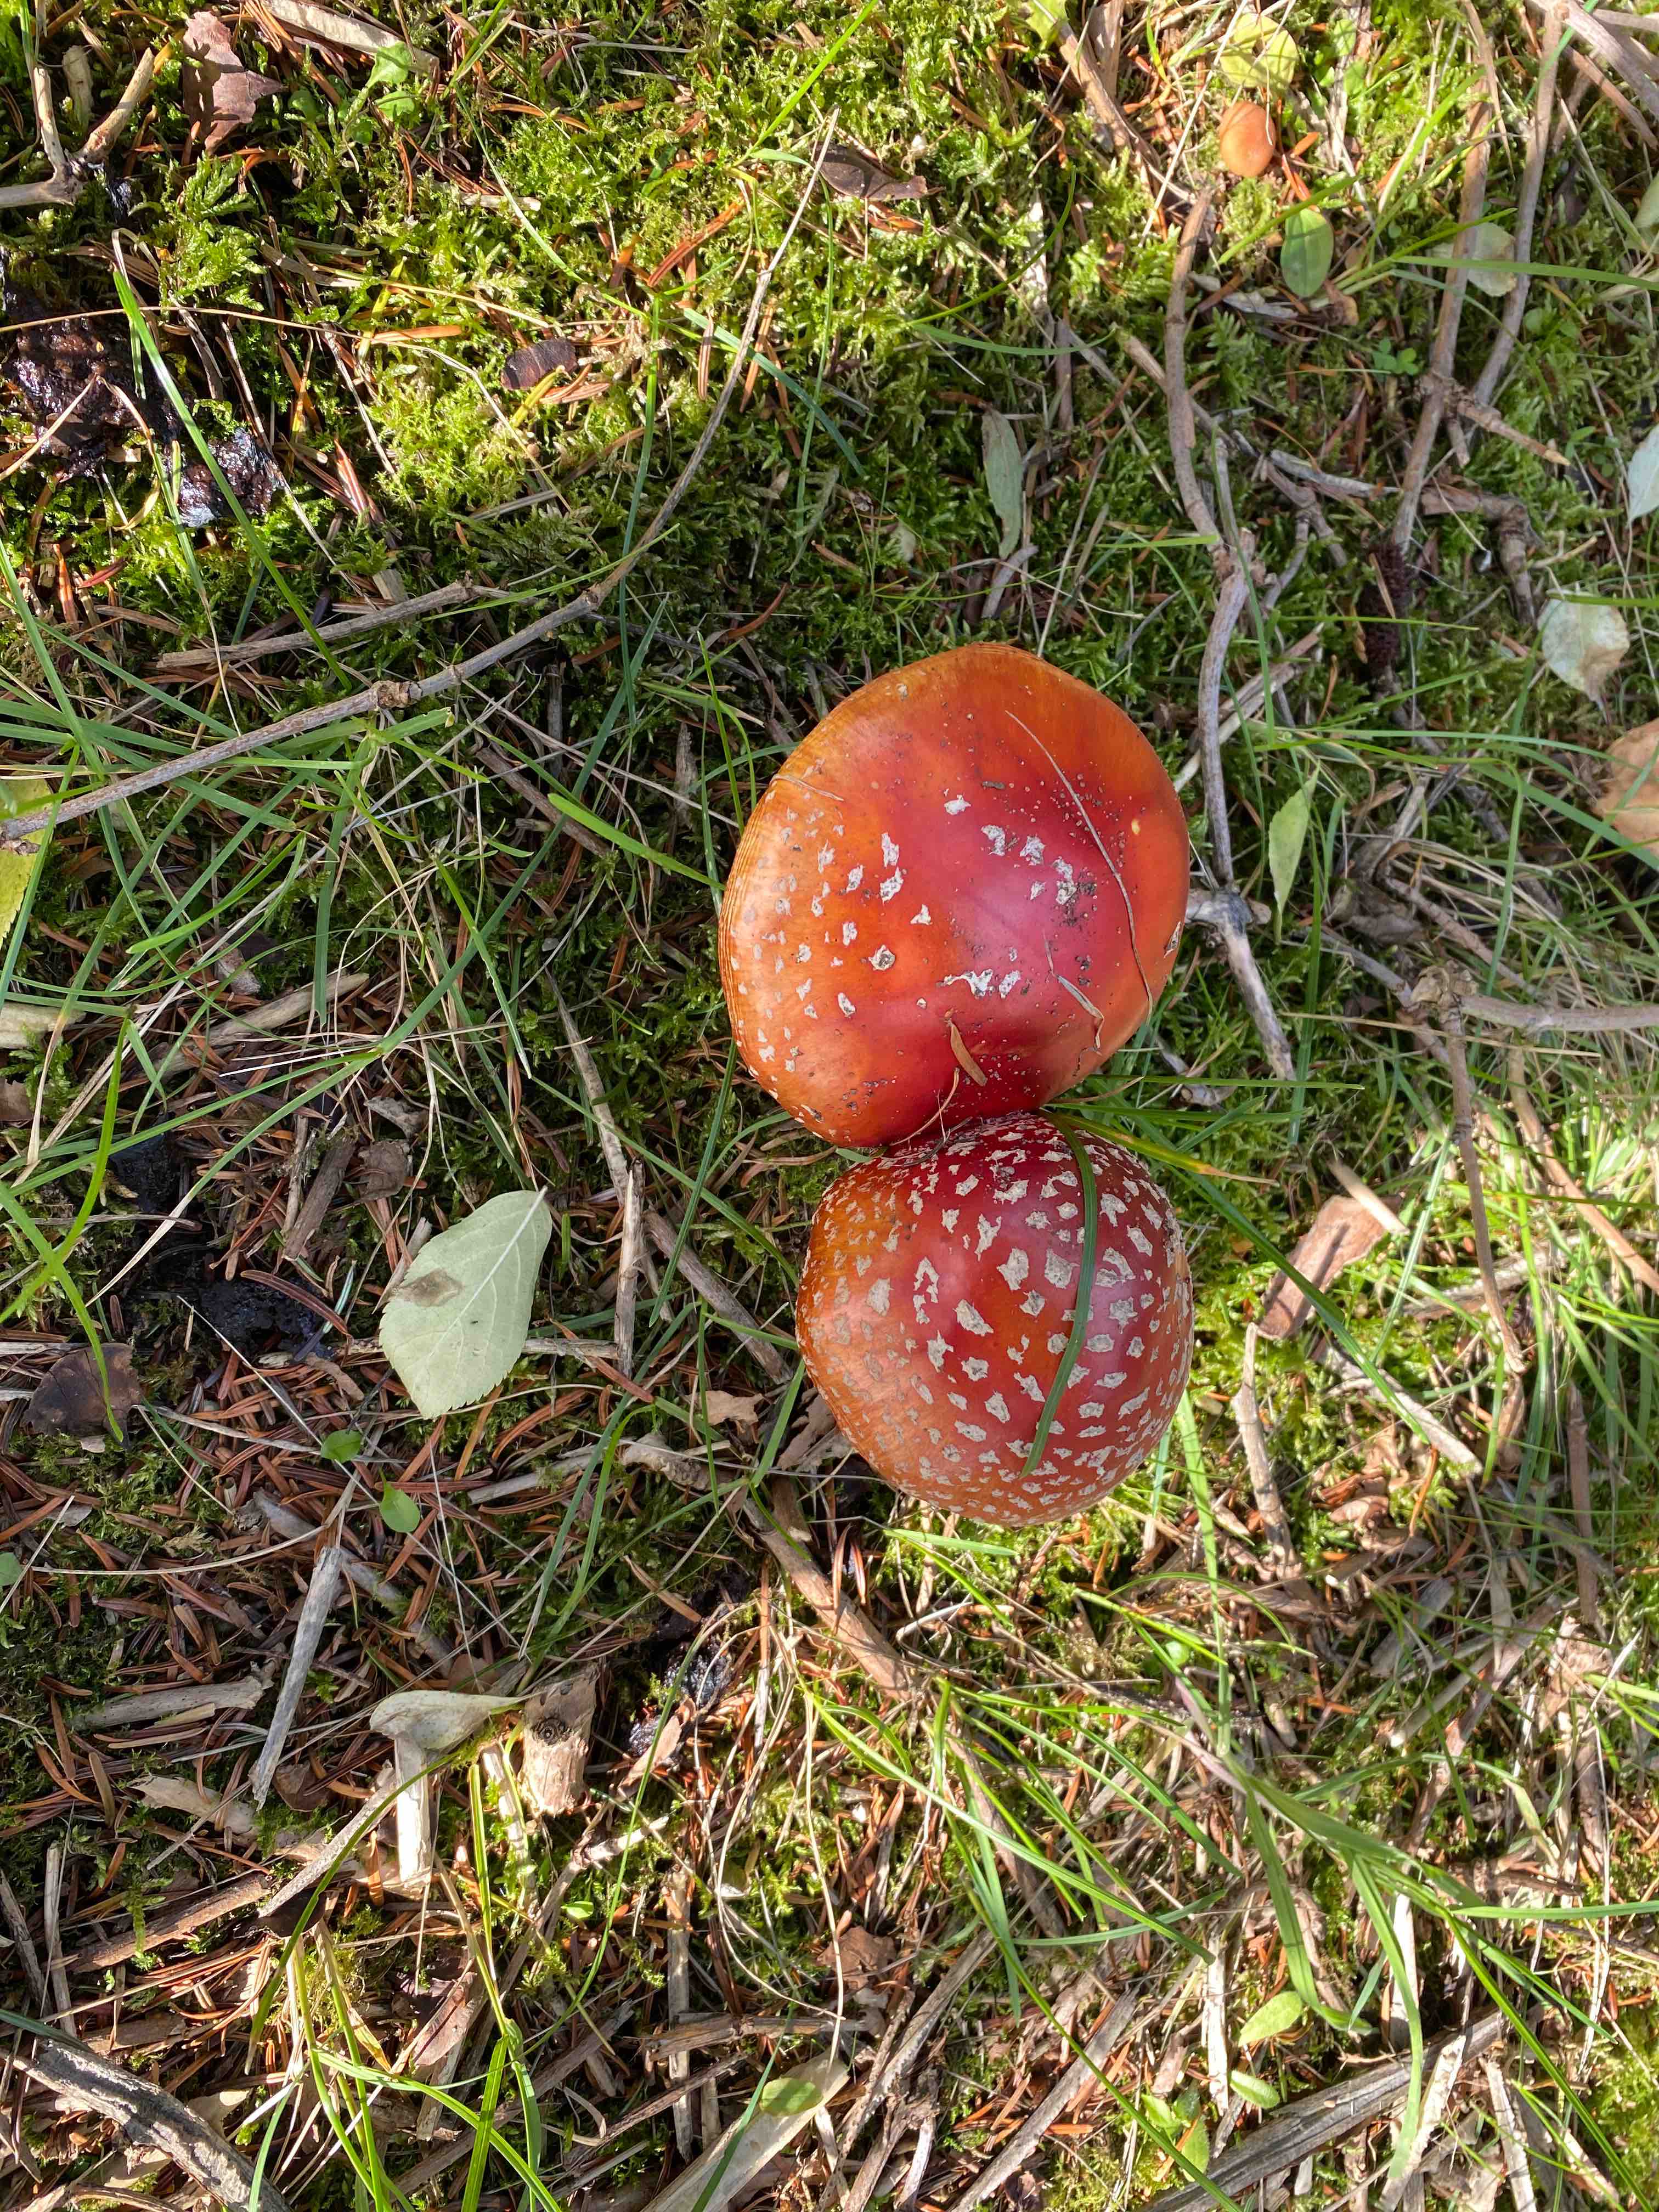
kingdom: Fungi
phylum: Basidiomycota
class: Agaricomycetes
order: Agaricales
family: Amanitaceae
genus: Amanita
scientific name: Amanita muscaria
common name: rød fluesvamp
